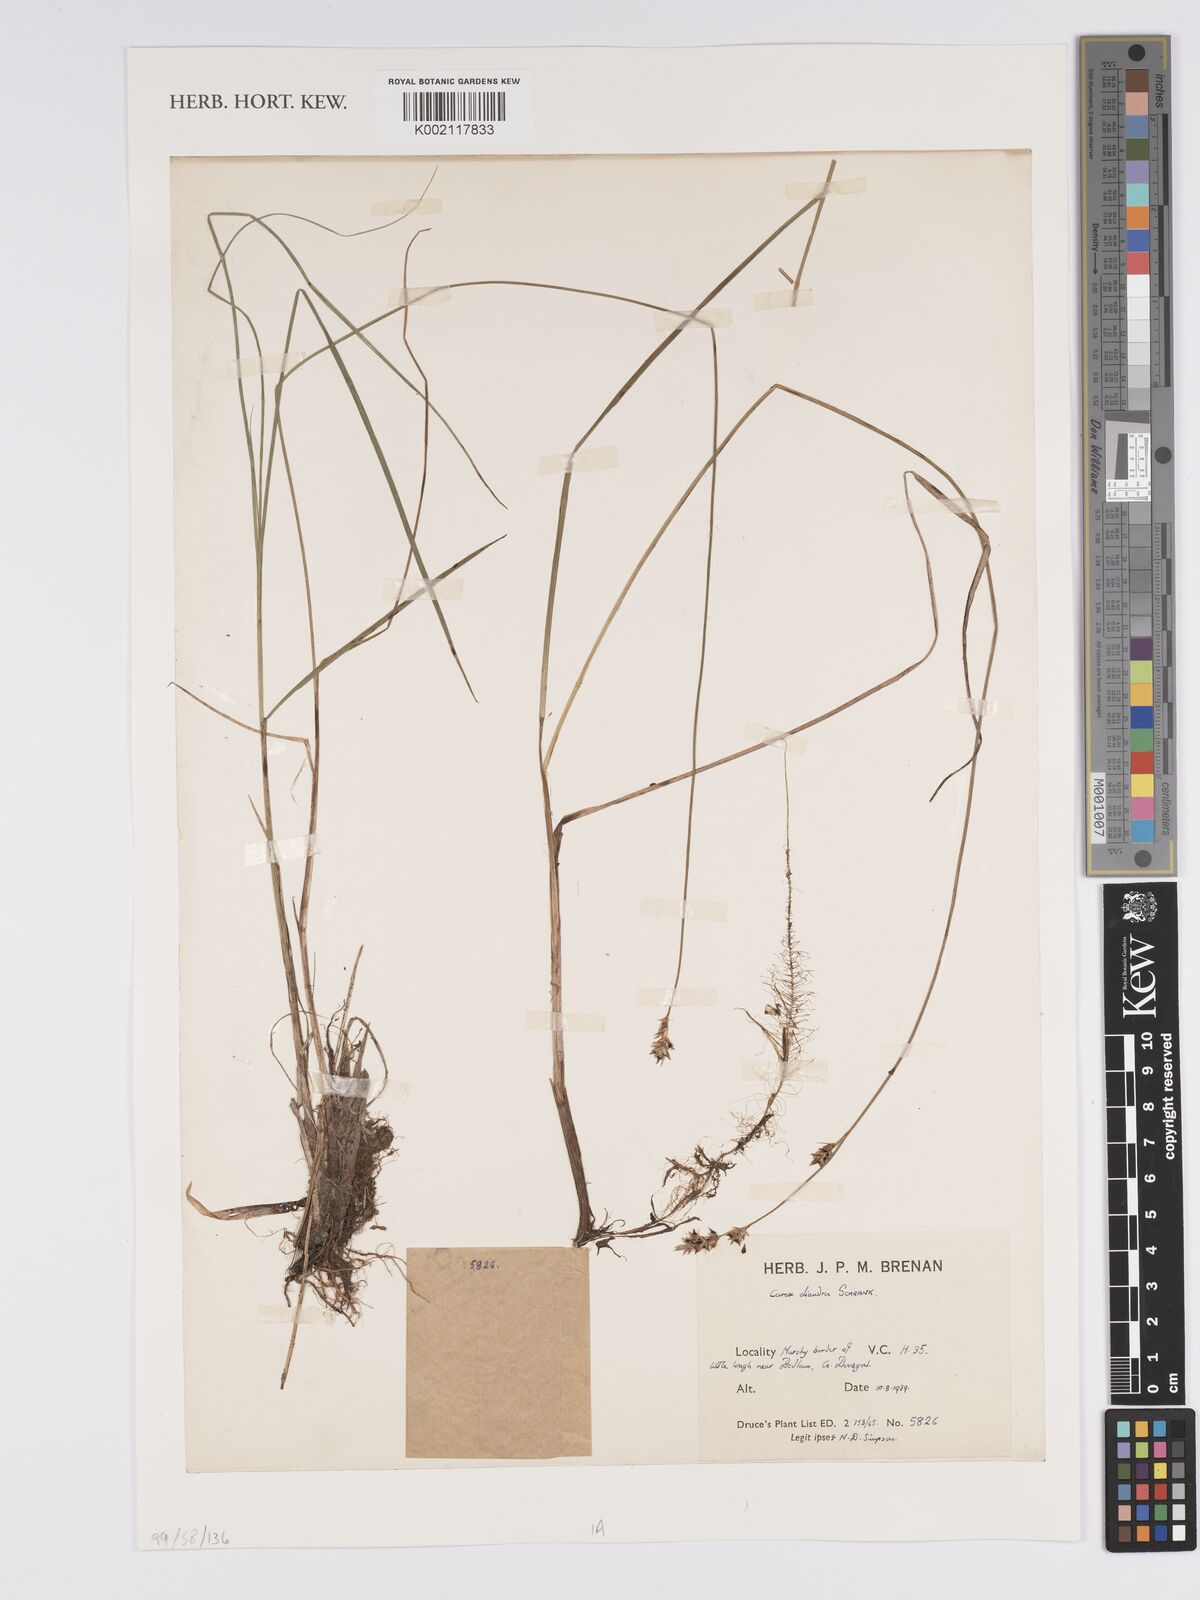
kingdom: Plantae
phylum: Tracheophyta
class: Liliopsida
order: Poales
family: Cyperaceae
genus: Carex
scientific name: Carex diandra
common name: Lesser tussock-sedge
